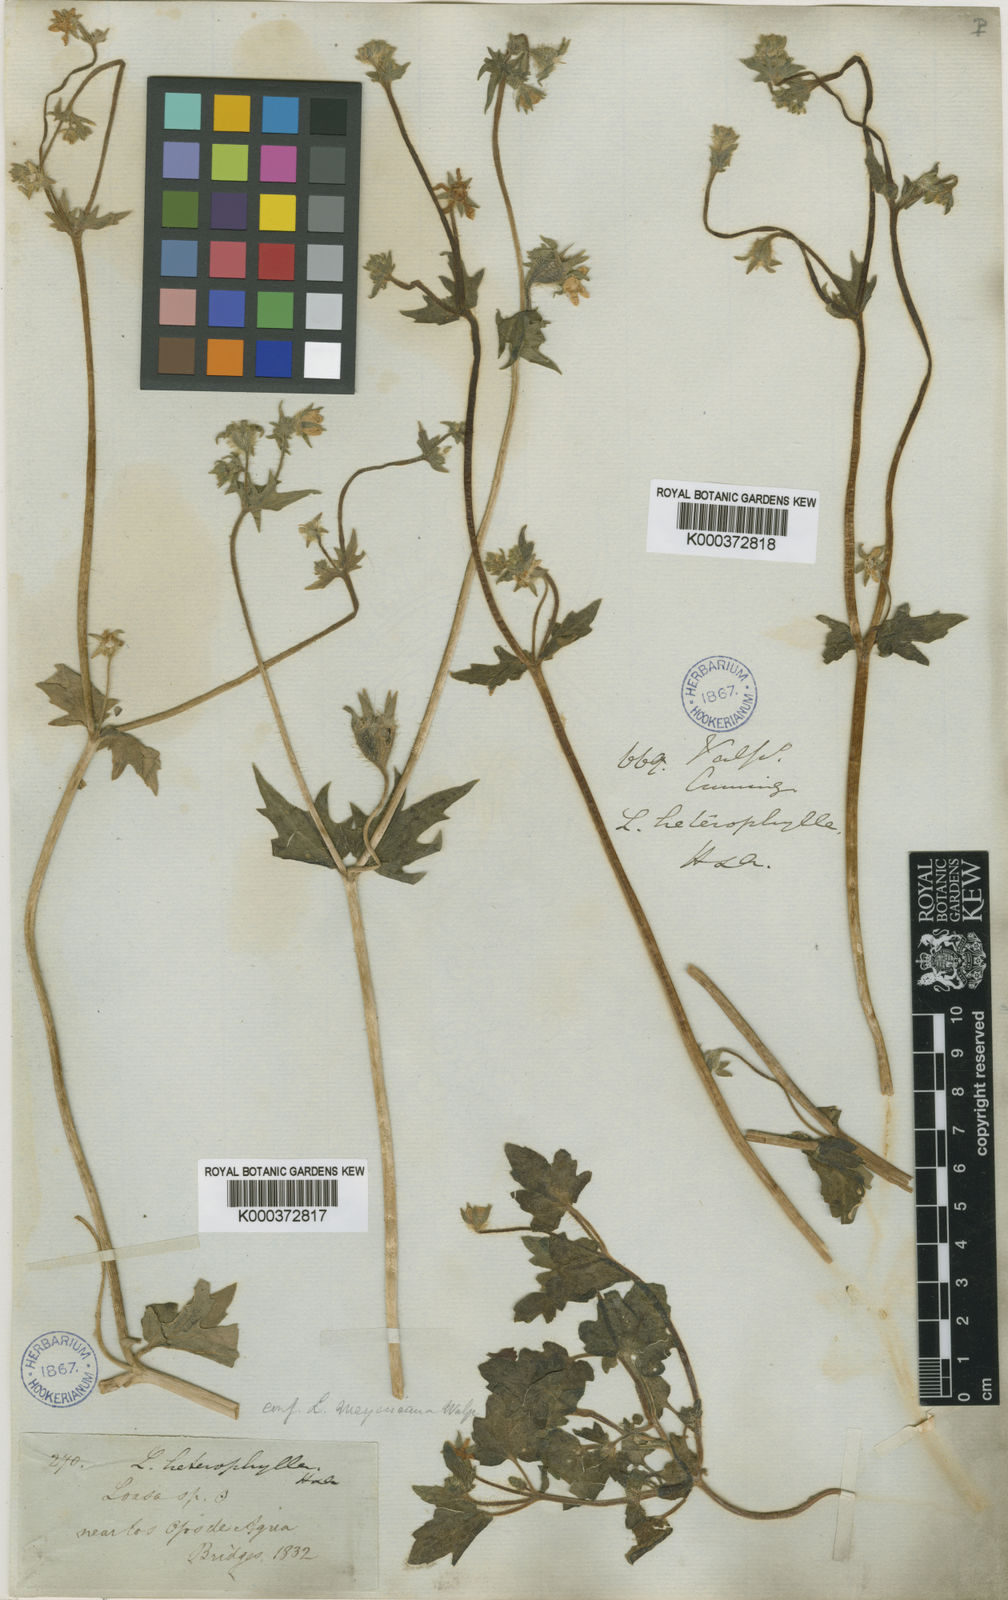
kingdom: Plantae
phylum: Tracheophyta
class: Magnoliopsida
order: Cornales
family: Loasaceae
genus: Loasa
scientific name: Loasa heterophylla
